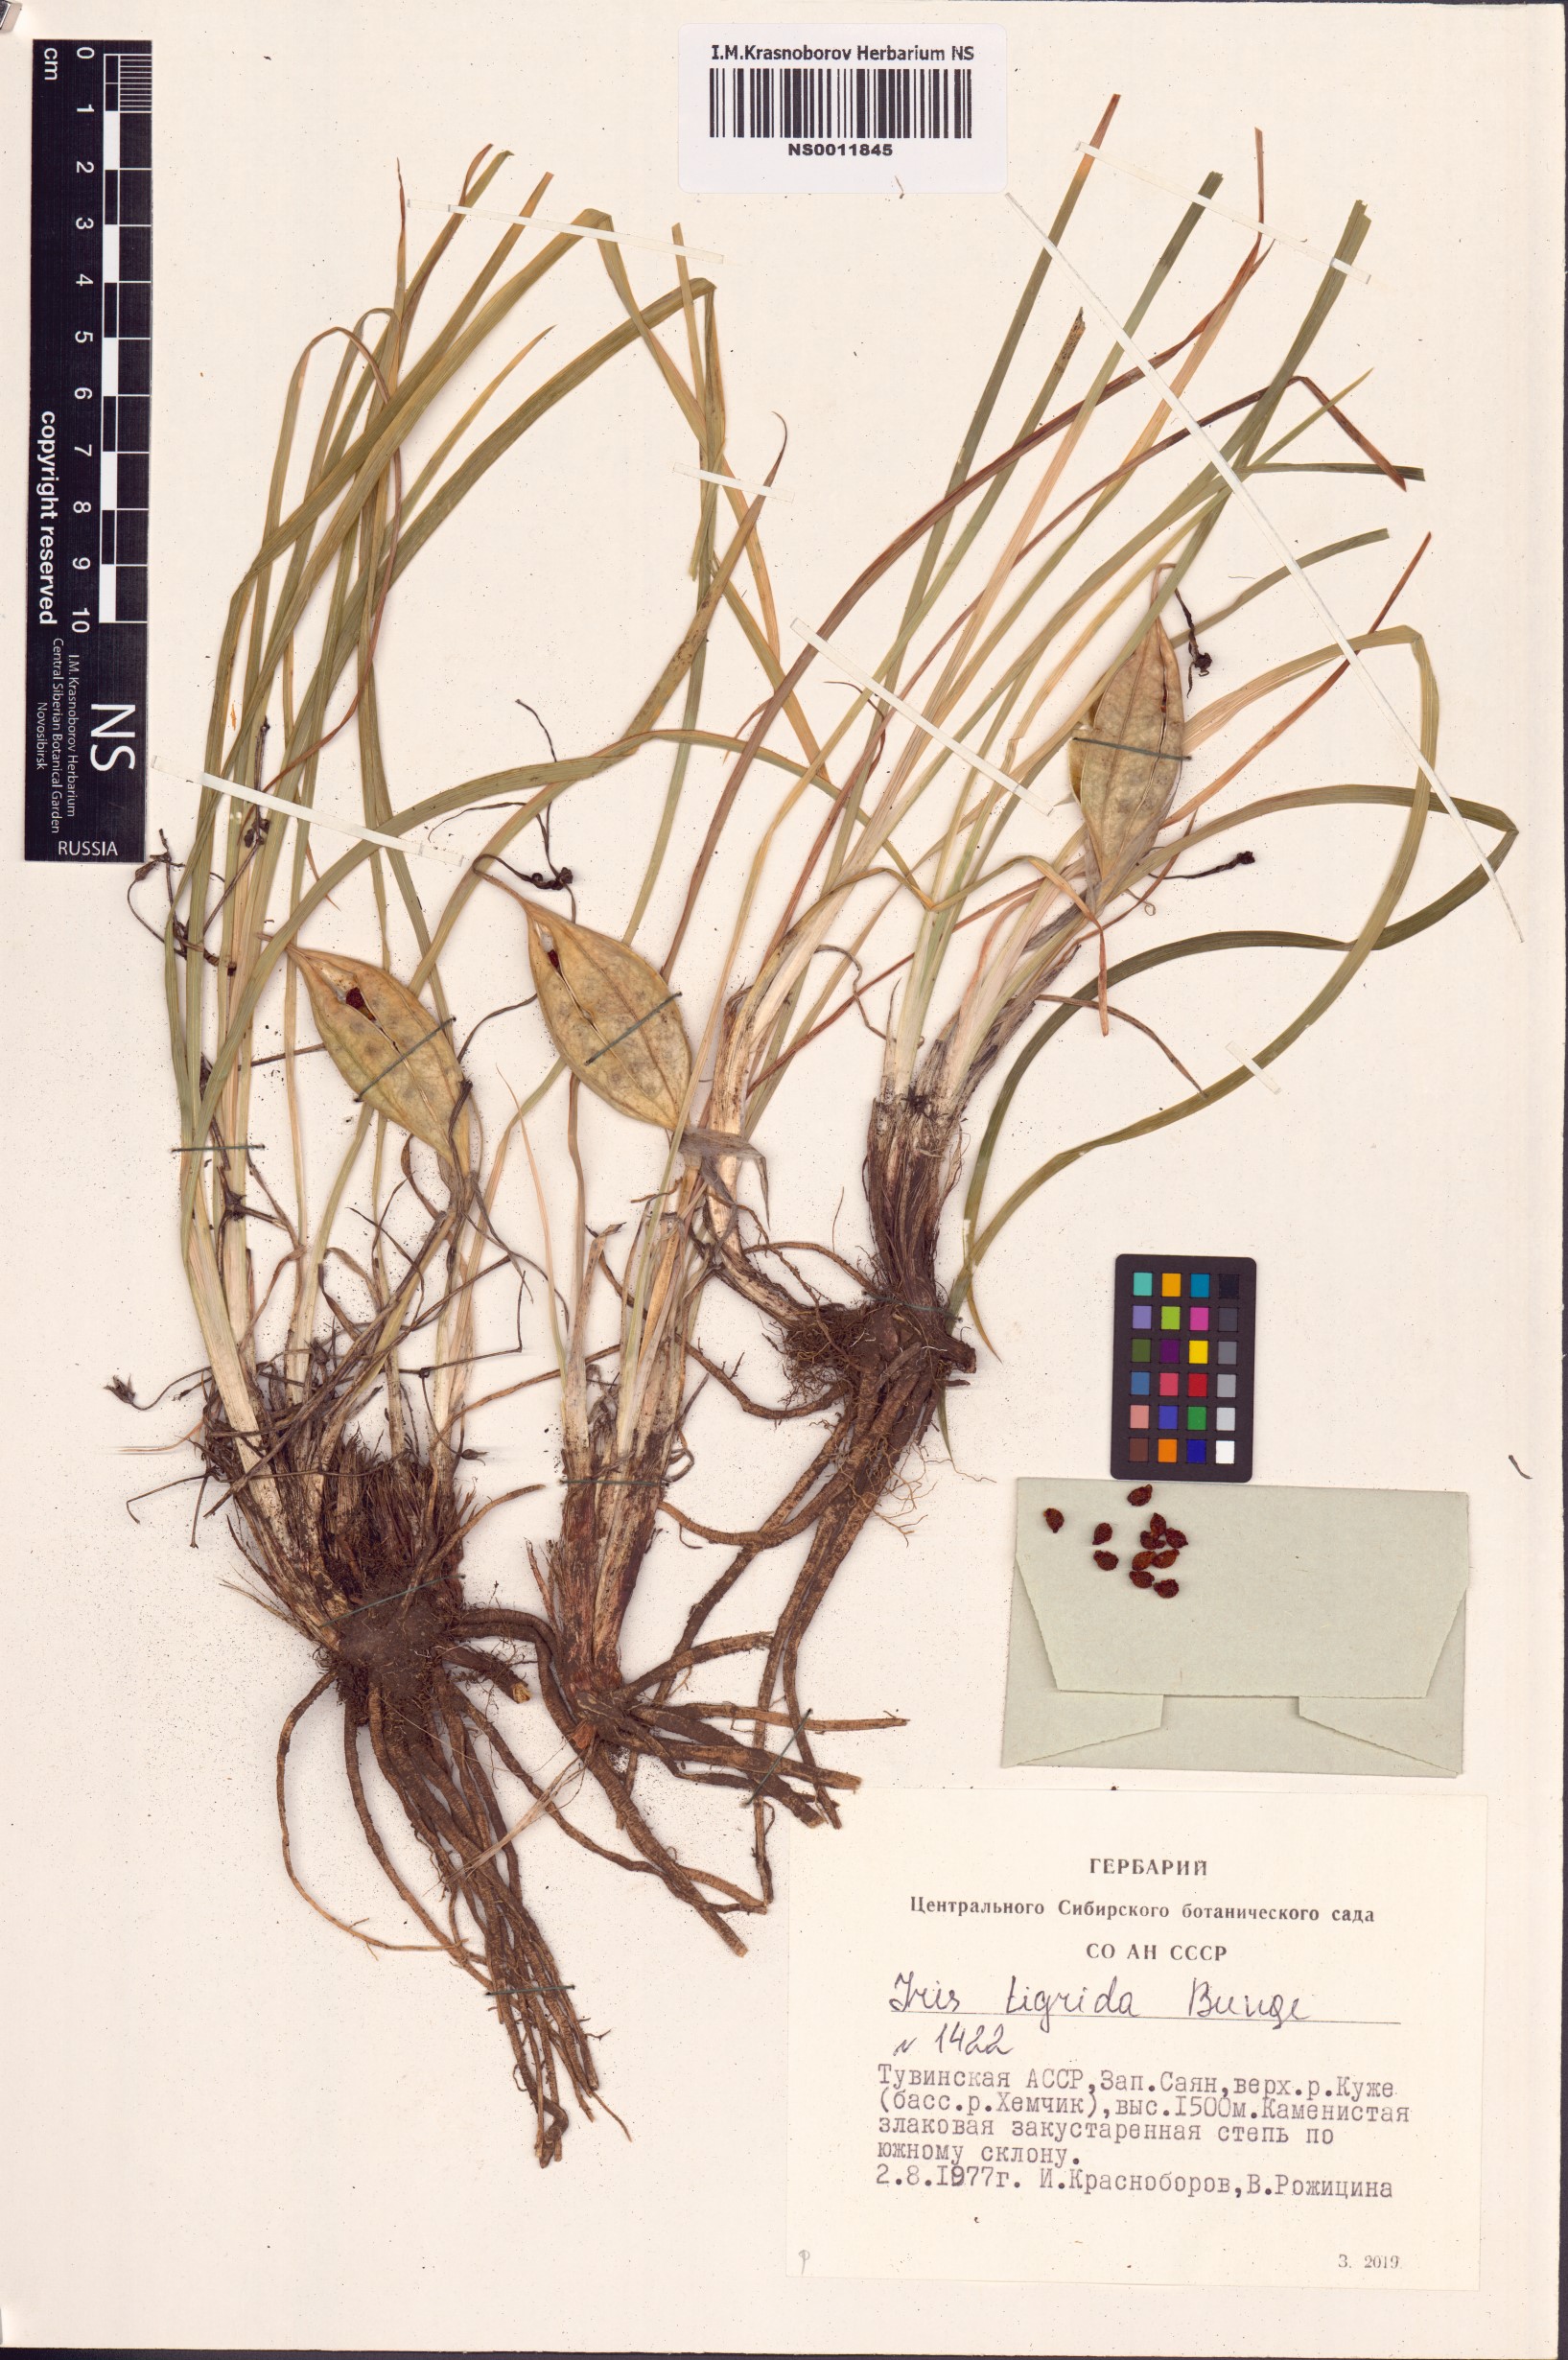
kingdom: Plantae
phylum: Tracheophyta
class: Liliopsida
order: Asparagales
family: Iridaceae
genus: Iris
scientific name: Iris tigridia
